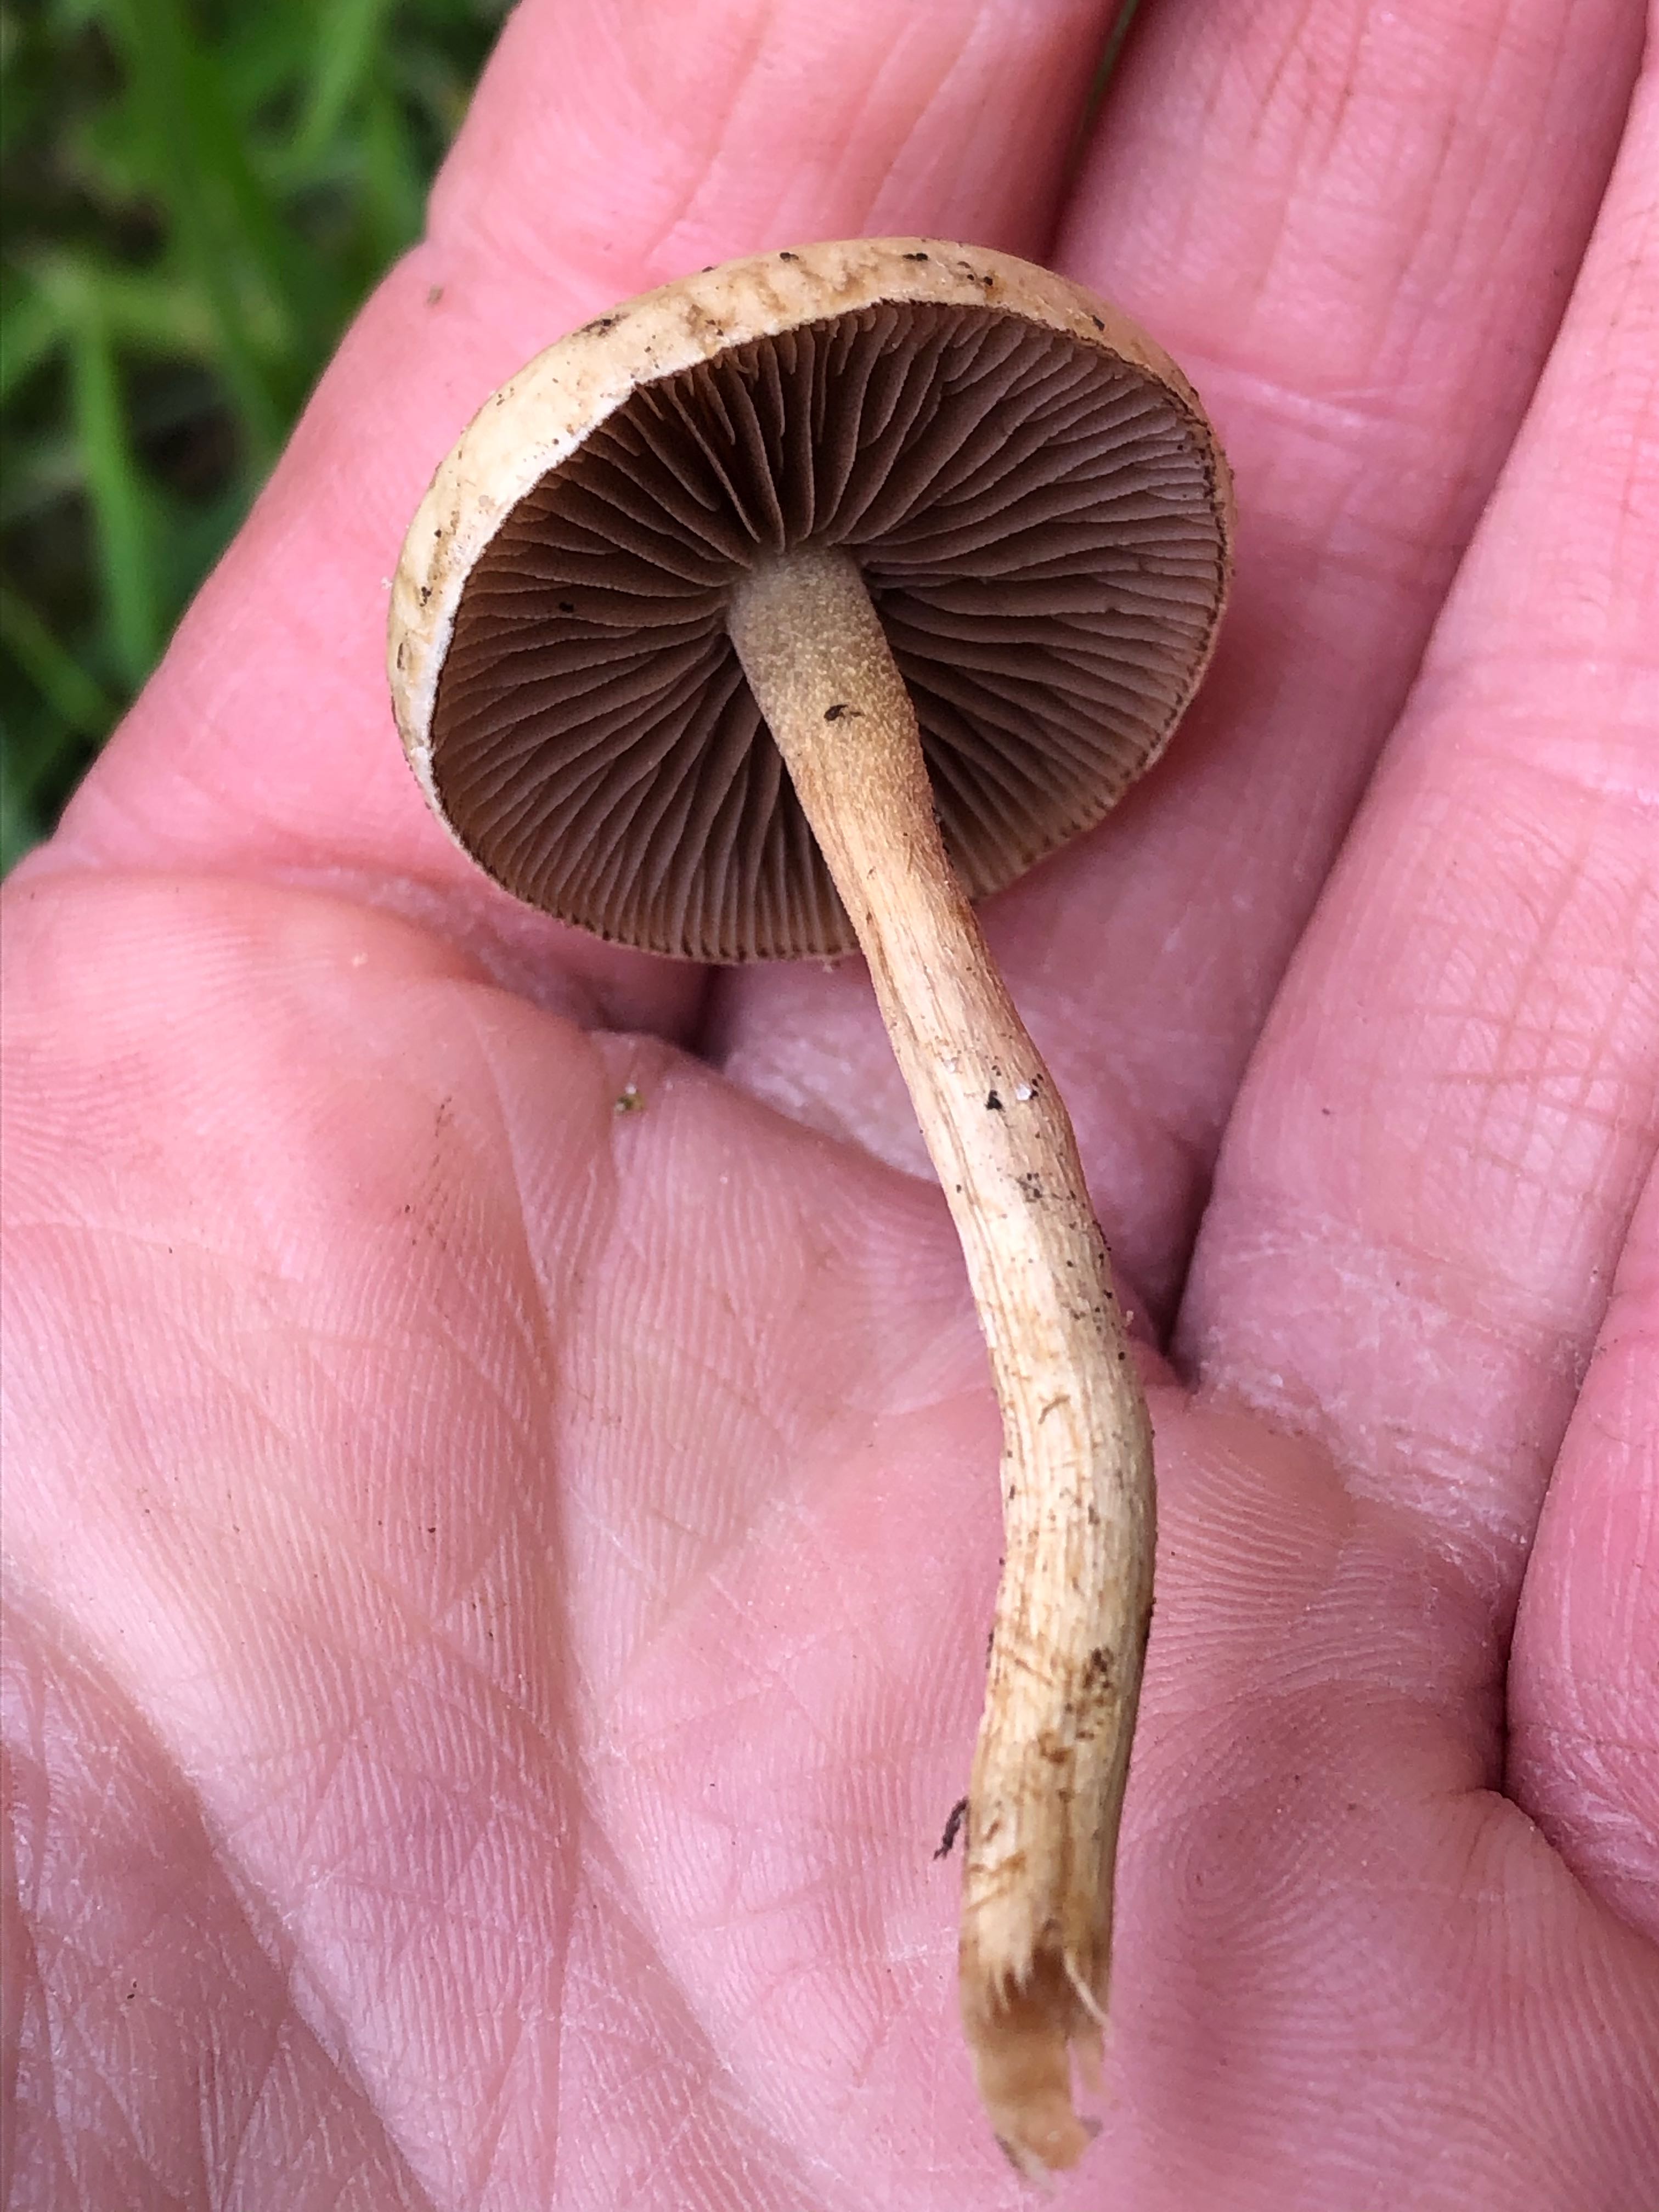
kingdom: Fungi
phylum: Basidiomycota
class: Agaricomycetes
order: Agaricales
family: Strophariaceae
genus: Agrocybe
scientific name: Agrocybe pediades
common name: almindelig agerhat
